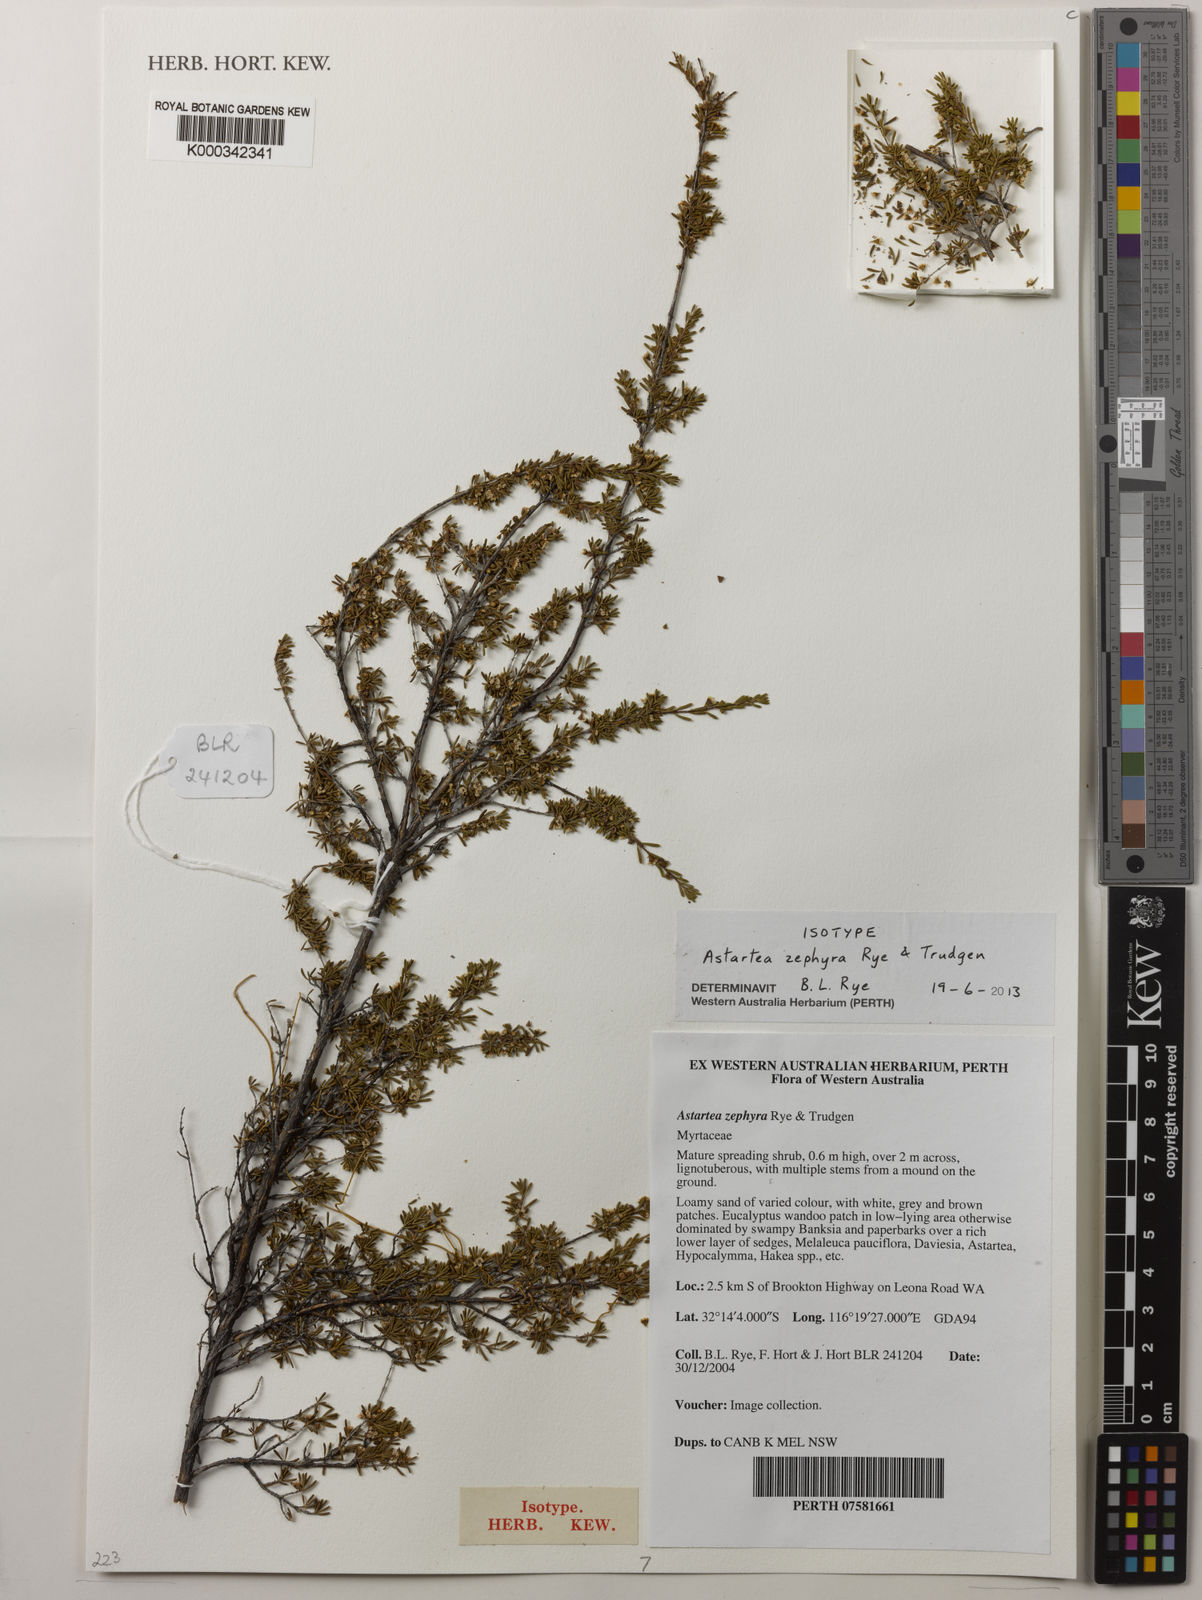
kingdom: Plantae
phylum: Tracheophyta
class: Magnoliopsida
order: Myrtales
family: Myrtaceae
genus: Astartea
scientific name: Astartea zephyra
